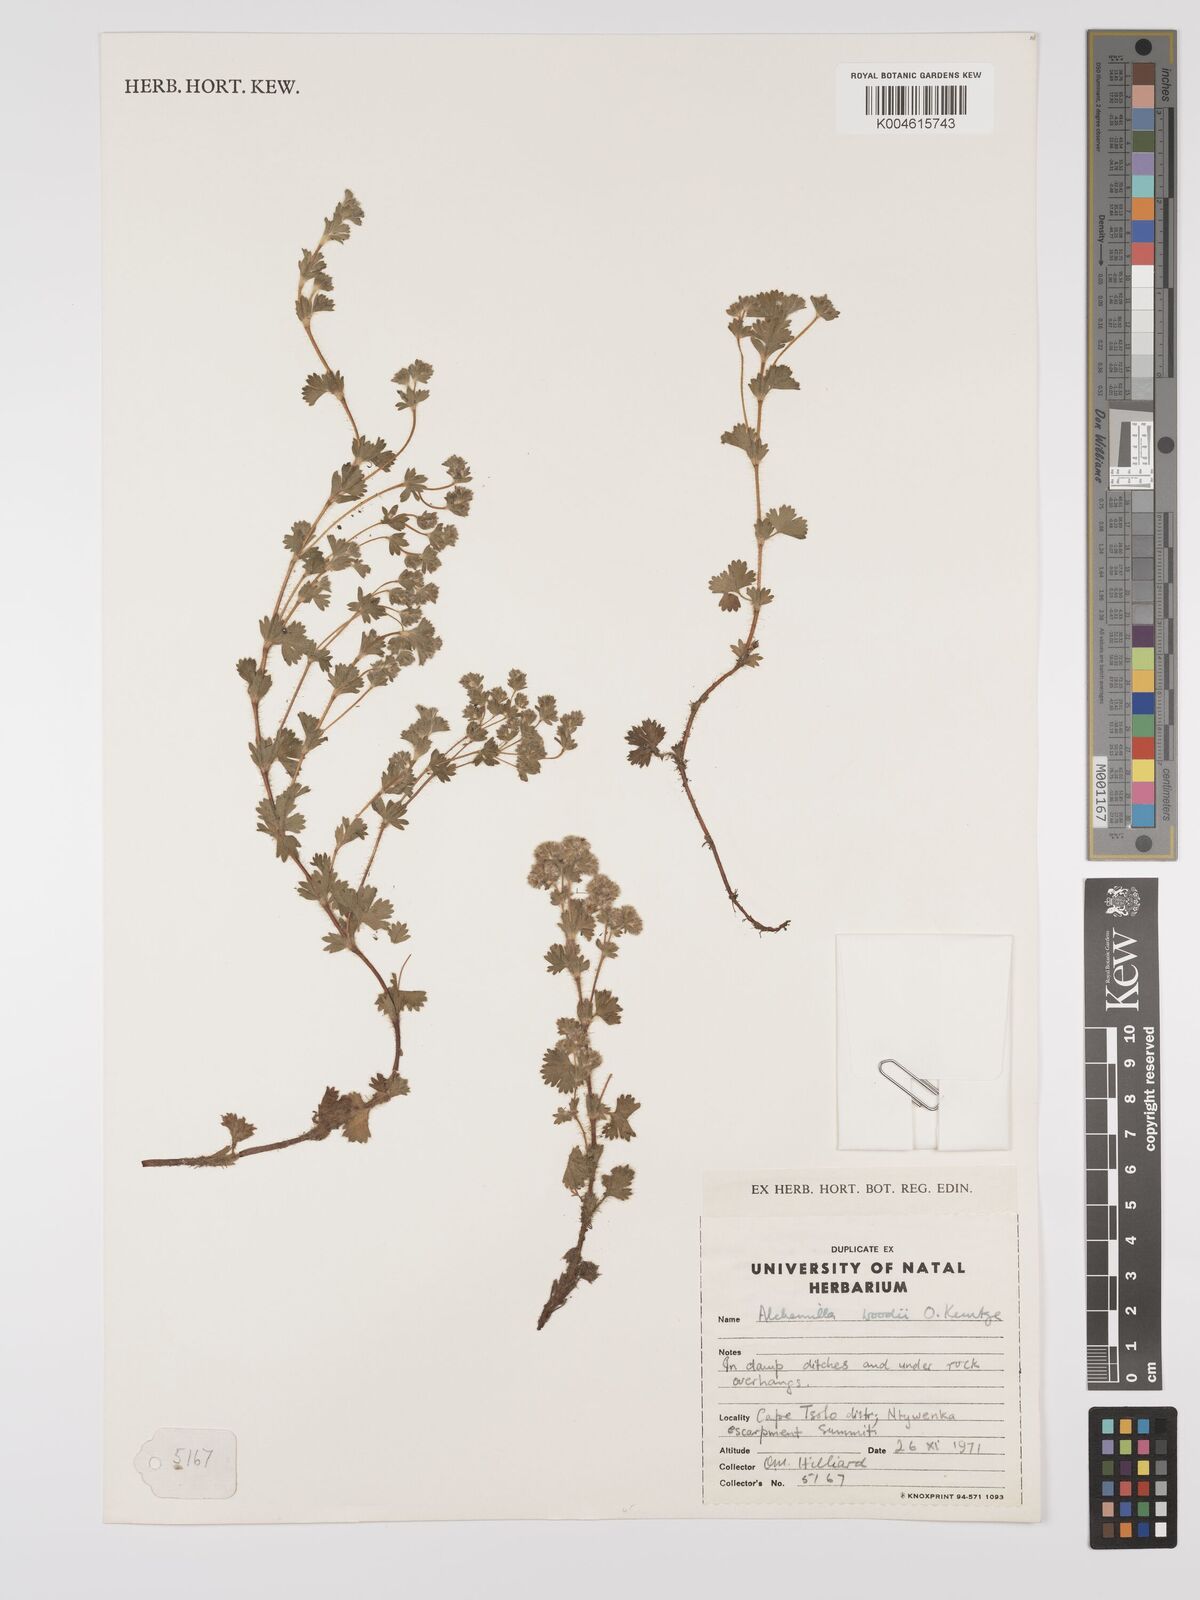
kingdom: Plantae
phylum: Tracheophyta
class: Magnoliopsida
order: Rosales
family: Rosaceae
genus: Alchemilla
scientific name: Alchemilla woodii
